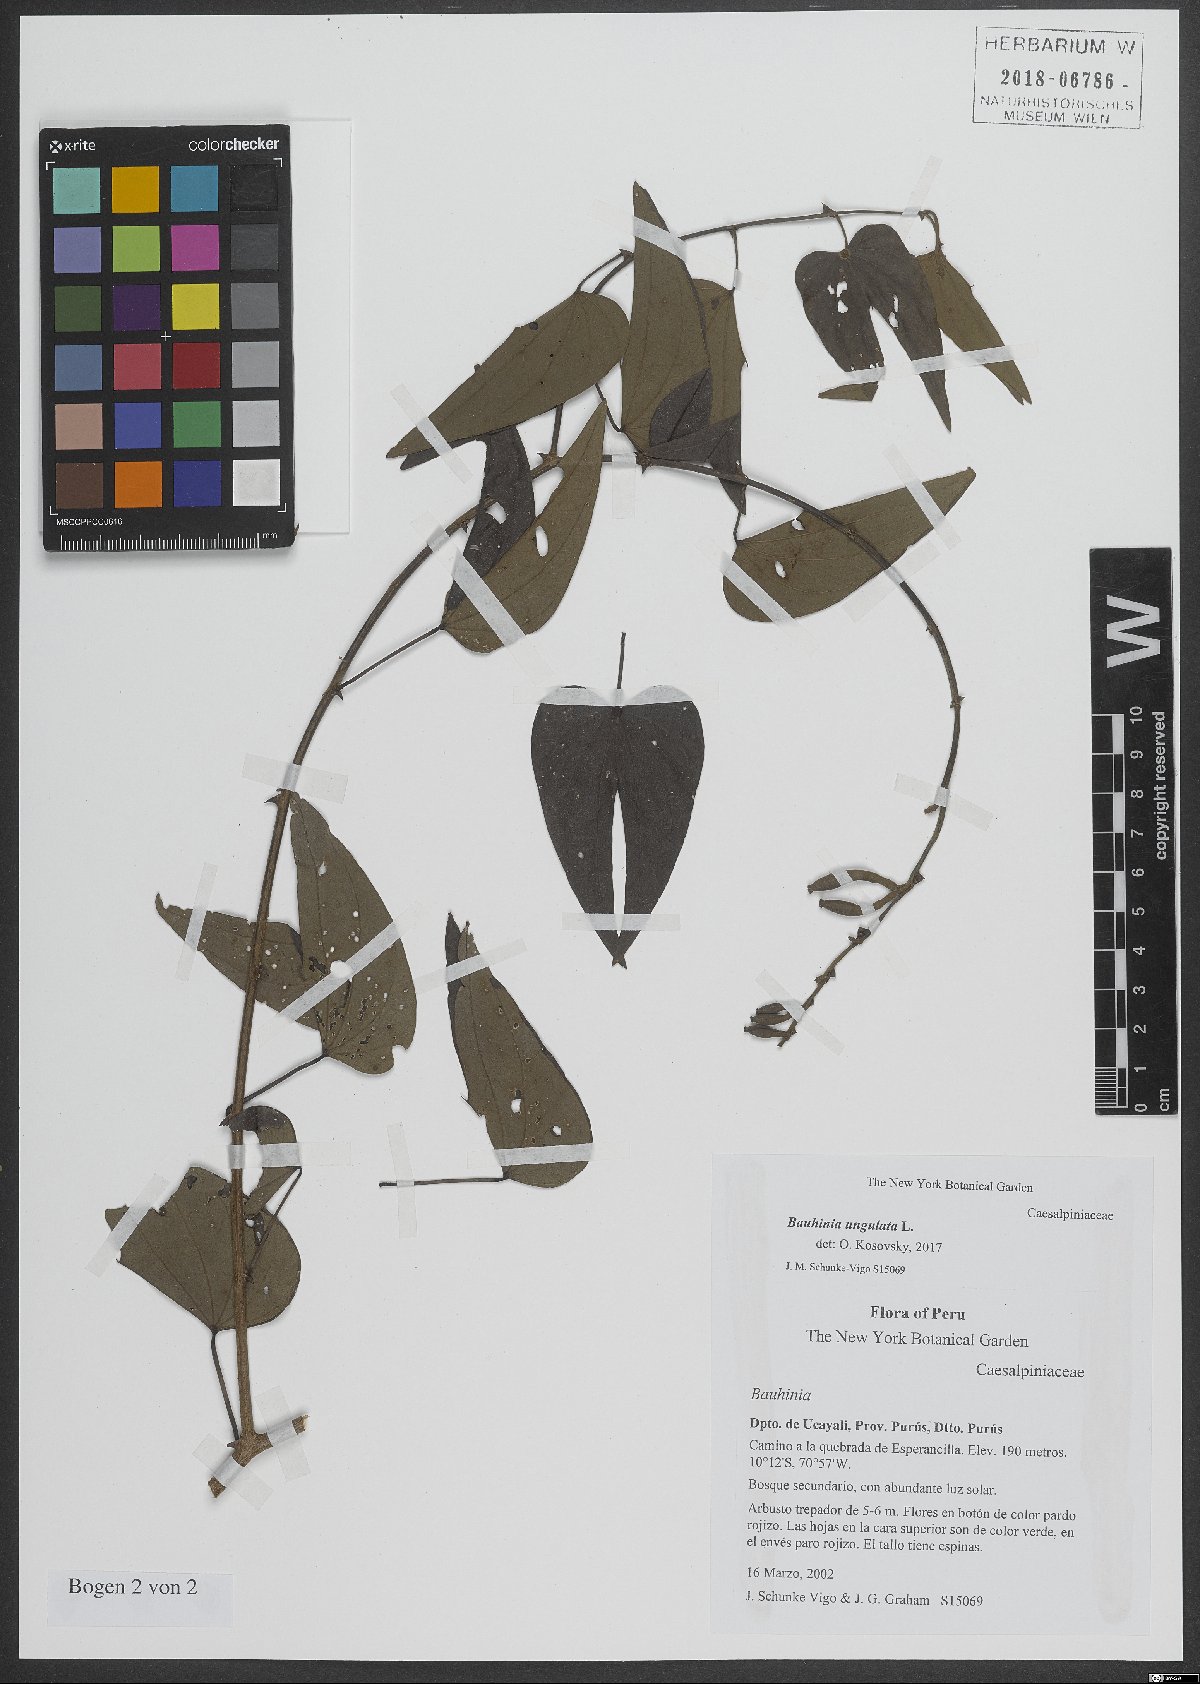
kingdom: Plantae
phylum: Tracheophyta
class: Magnoliopsida
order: Fabales
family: Fabaceae
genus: Bauhinia
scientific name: Bauhinia ungulata
